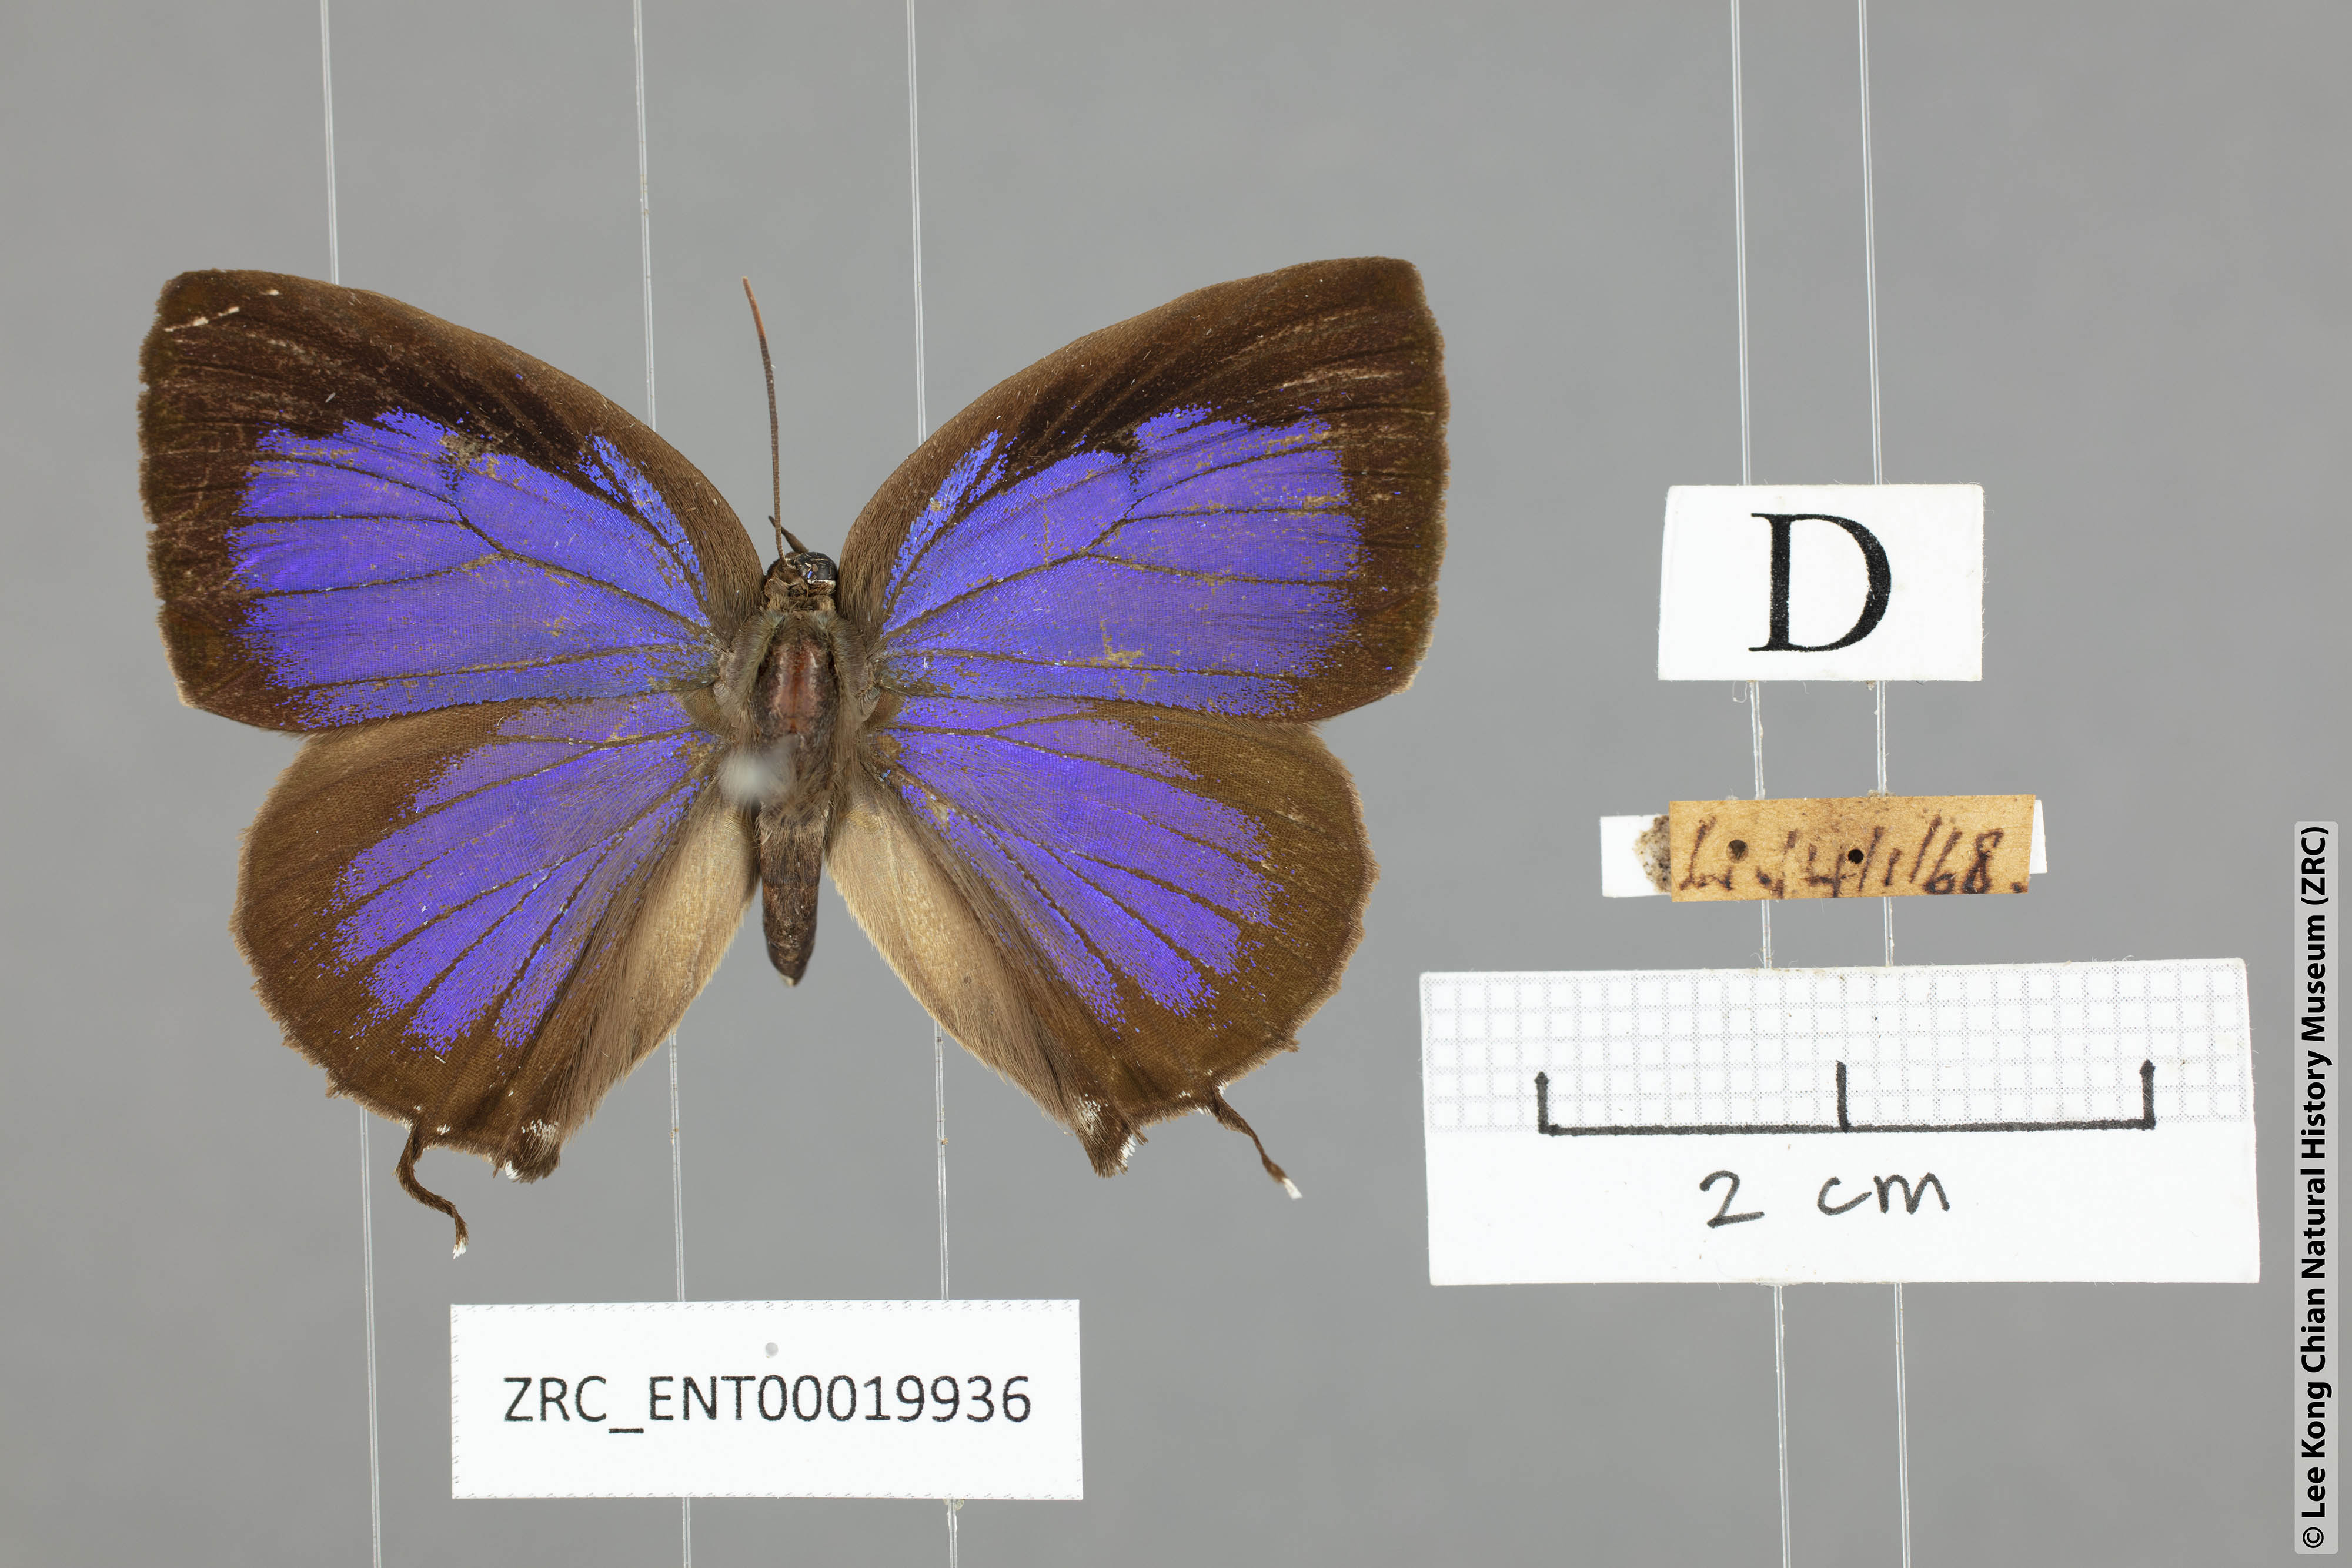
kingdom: Animalia
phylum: Arthropoda
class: Insecta
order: Lepidoptera
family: Lycaenidae
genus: Arhopala
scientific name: Arhopala zambra
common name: Zambra oakblue
